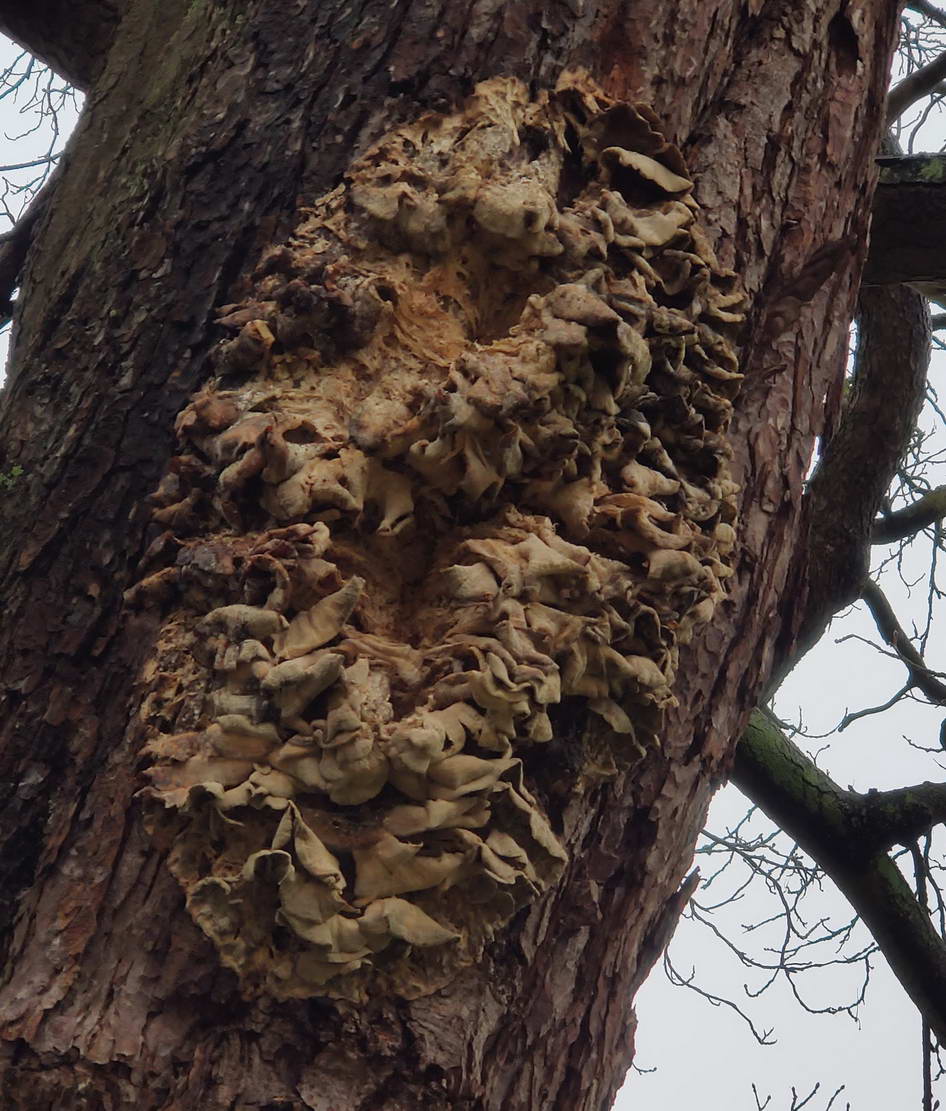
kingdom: Fungi
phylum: Basidiomycota
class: Agaricomycetes
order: Polyporales
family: Meruliaceae
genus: Climacodon
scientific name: Climacodon septentrionalis
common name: kæmpepigsvamp
